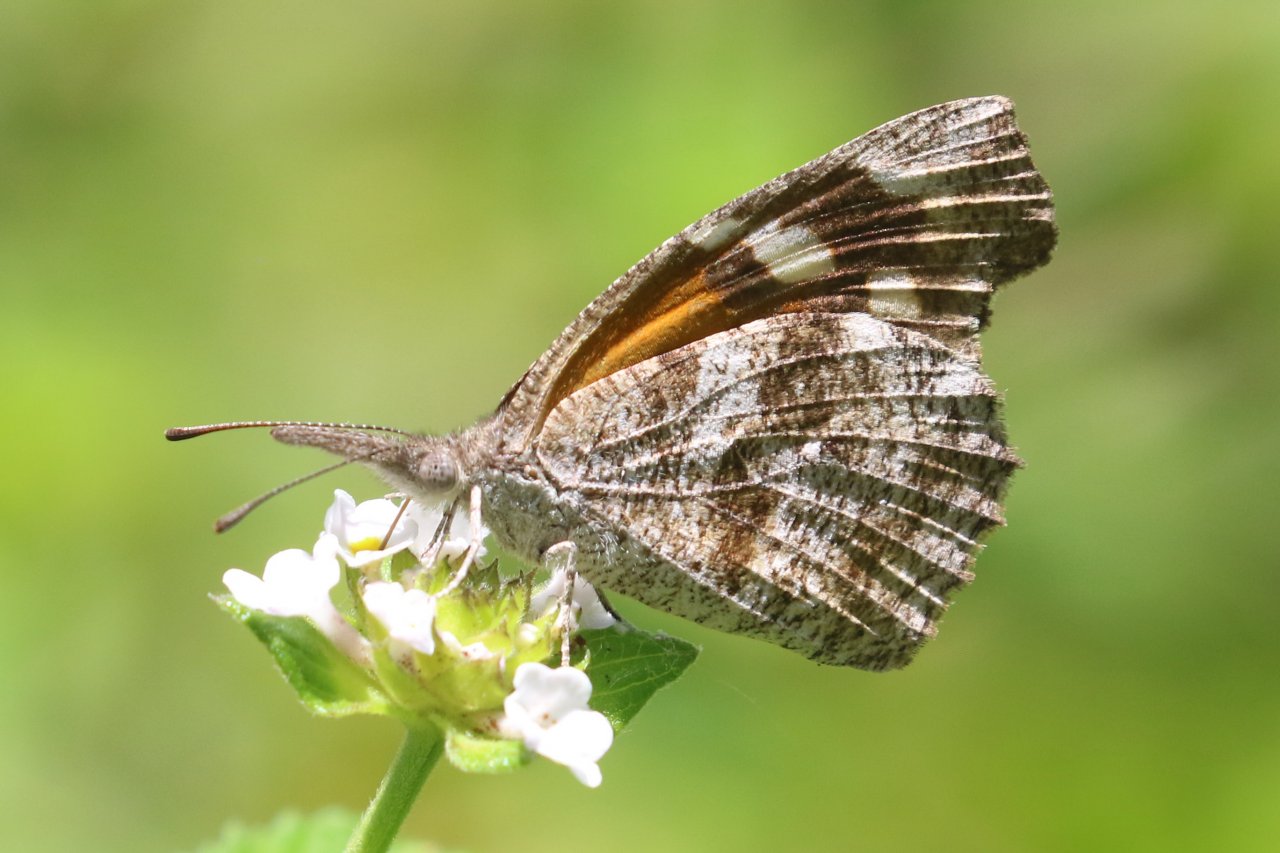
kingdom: Animalia
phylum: Arthropoda
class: Insecta
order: Lepidoptera
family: Nymphalidae
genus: Libytheana
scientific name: Libytheana carinenta
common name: American Snout
